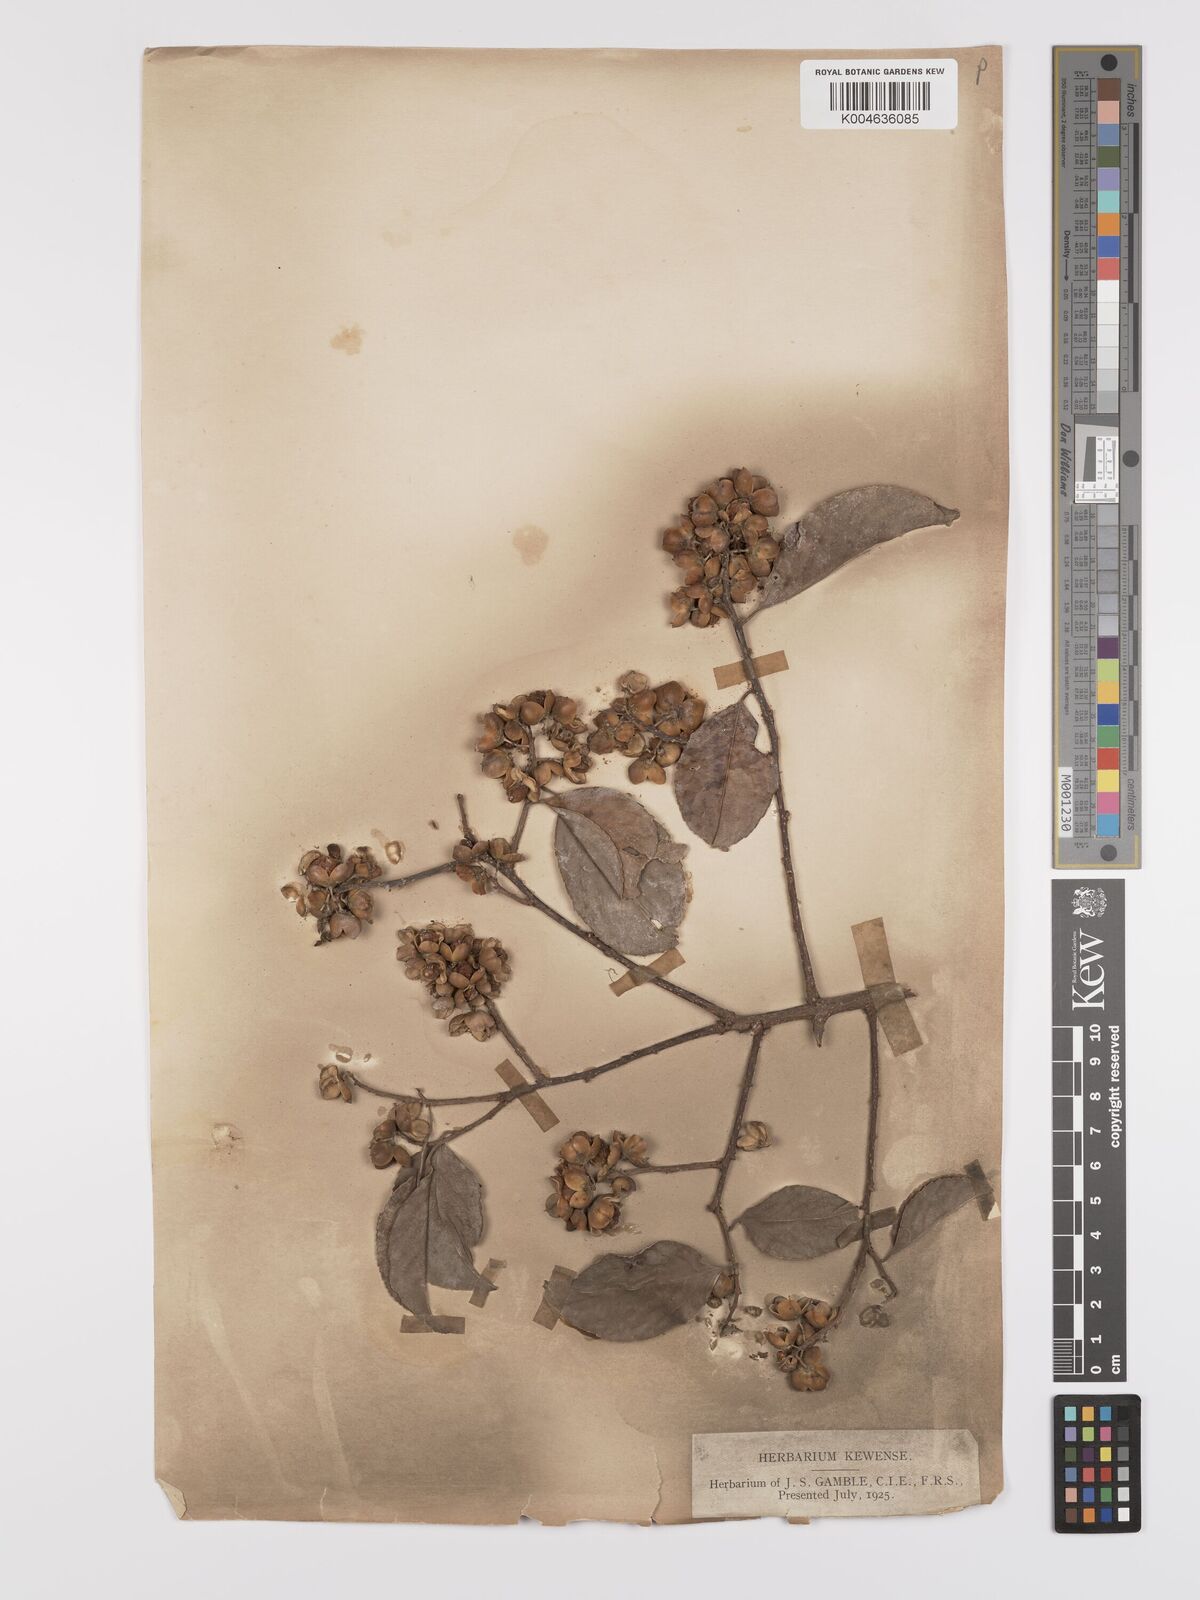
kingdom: Plantae
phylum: Tracheophyta
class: Magnoliopsida
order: Celastrales
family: Celastraceae
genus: Celastrus
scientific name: Celastrus paniculatus
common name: Oriental bittersweet; staff vine
